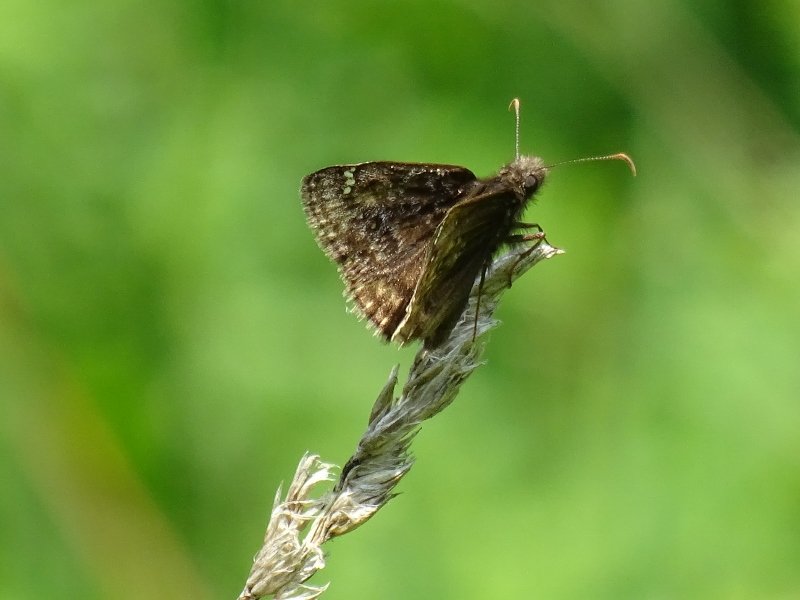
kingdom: Animalia
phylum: Arthropoda
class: Insecta
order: Lepidoptera
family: Hesperiidae
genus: Erynnis
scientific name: Erynnis
